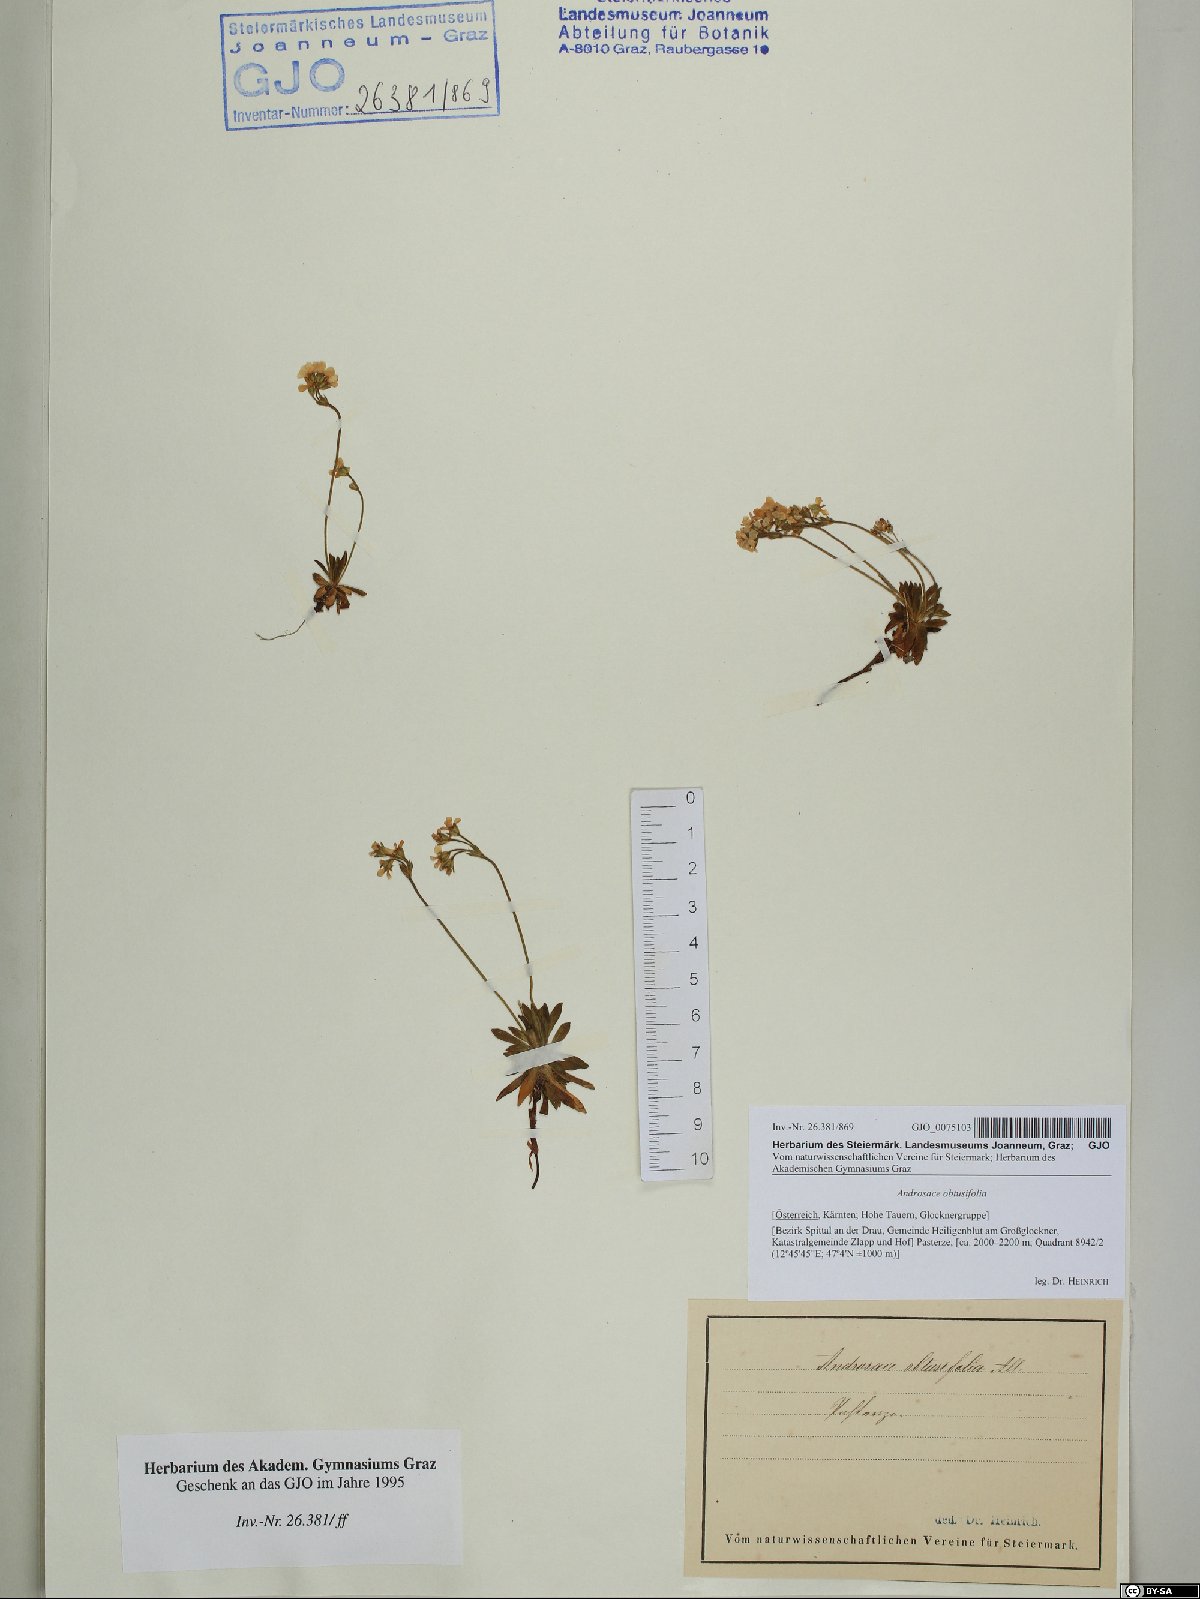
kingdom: Plantae
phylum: Tracheophyta
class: Magnoliopsida
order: Ericales
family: Primulaceae
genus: Androsace
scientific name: Androsace obtusifolia
